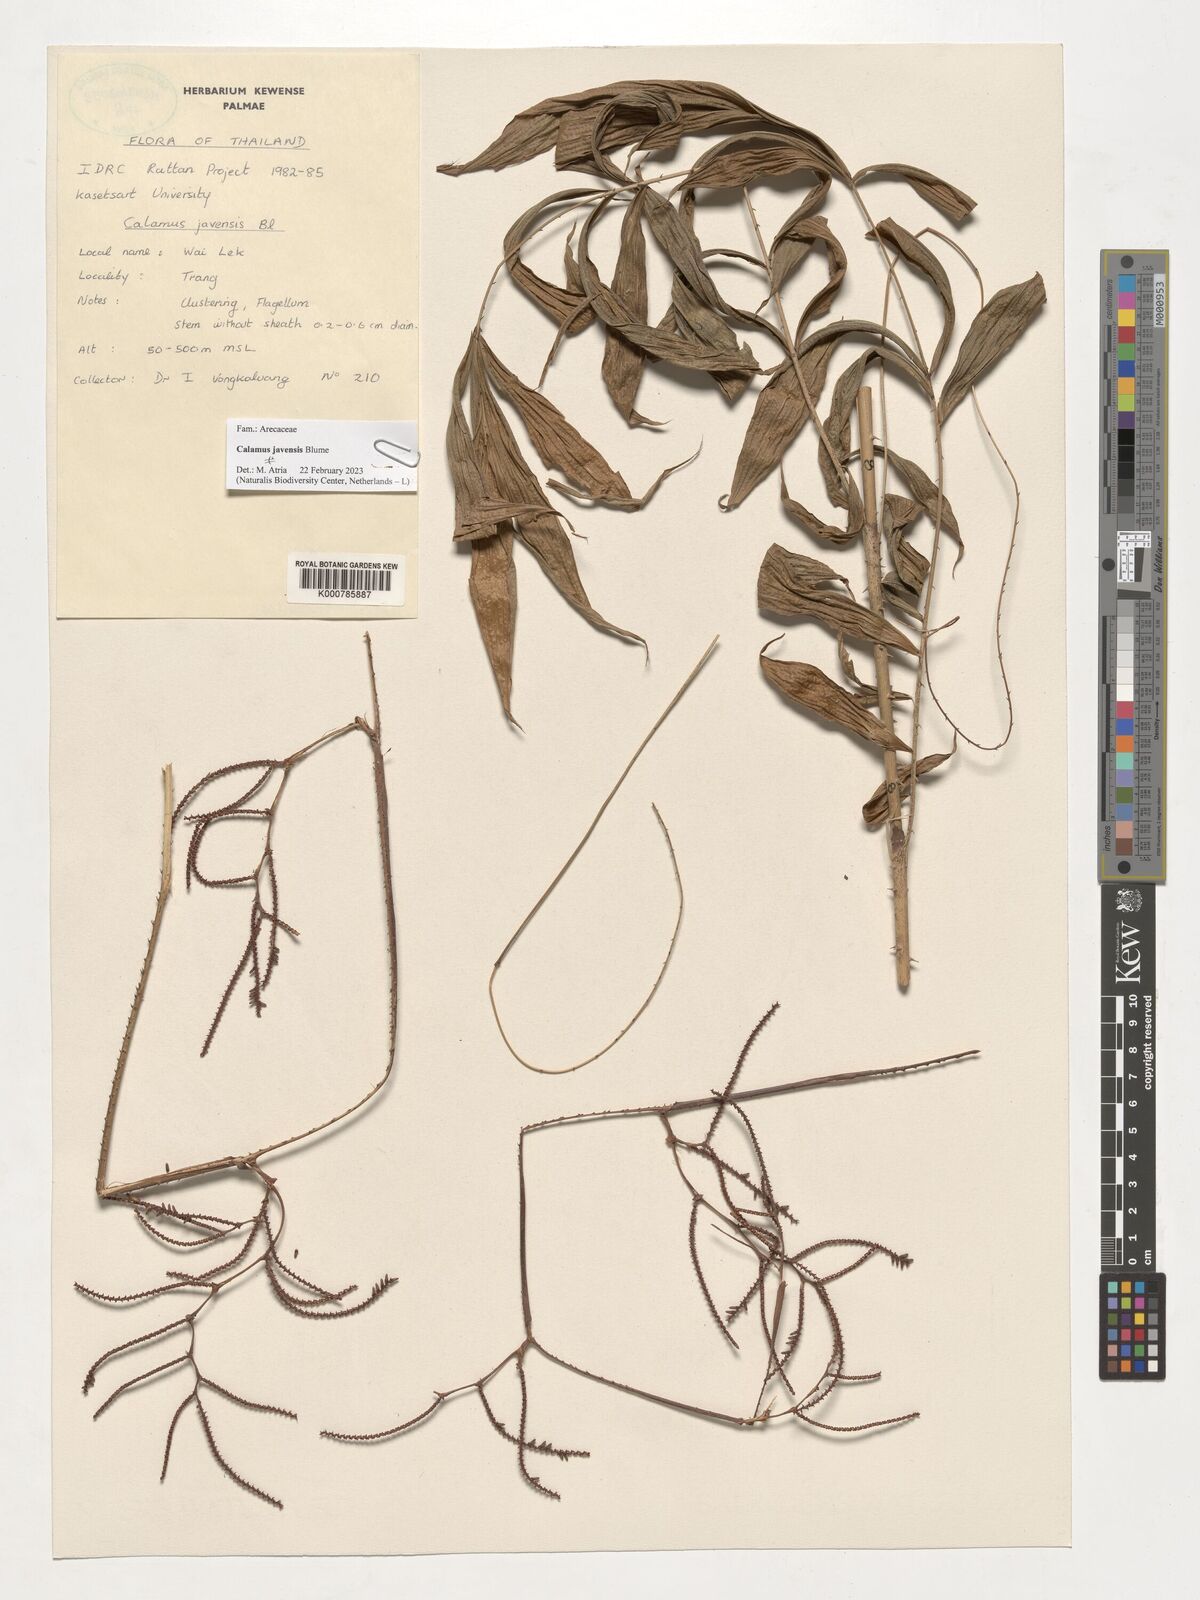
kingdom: Plantae
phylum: Tracheophyta
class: Liliopsida
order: Arecales
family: Arecaceae
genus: Calamus
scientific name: Calamus javensis
